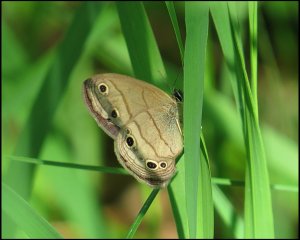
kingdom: Animalia
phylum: Arthropoda
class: Insecta
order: Lepidoptera
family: Nymphalidae
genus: Euptychia
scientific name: Euptychia cymela
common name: Little Wood Satyr
